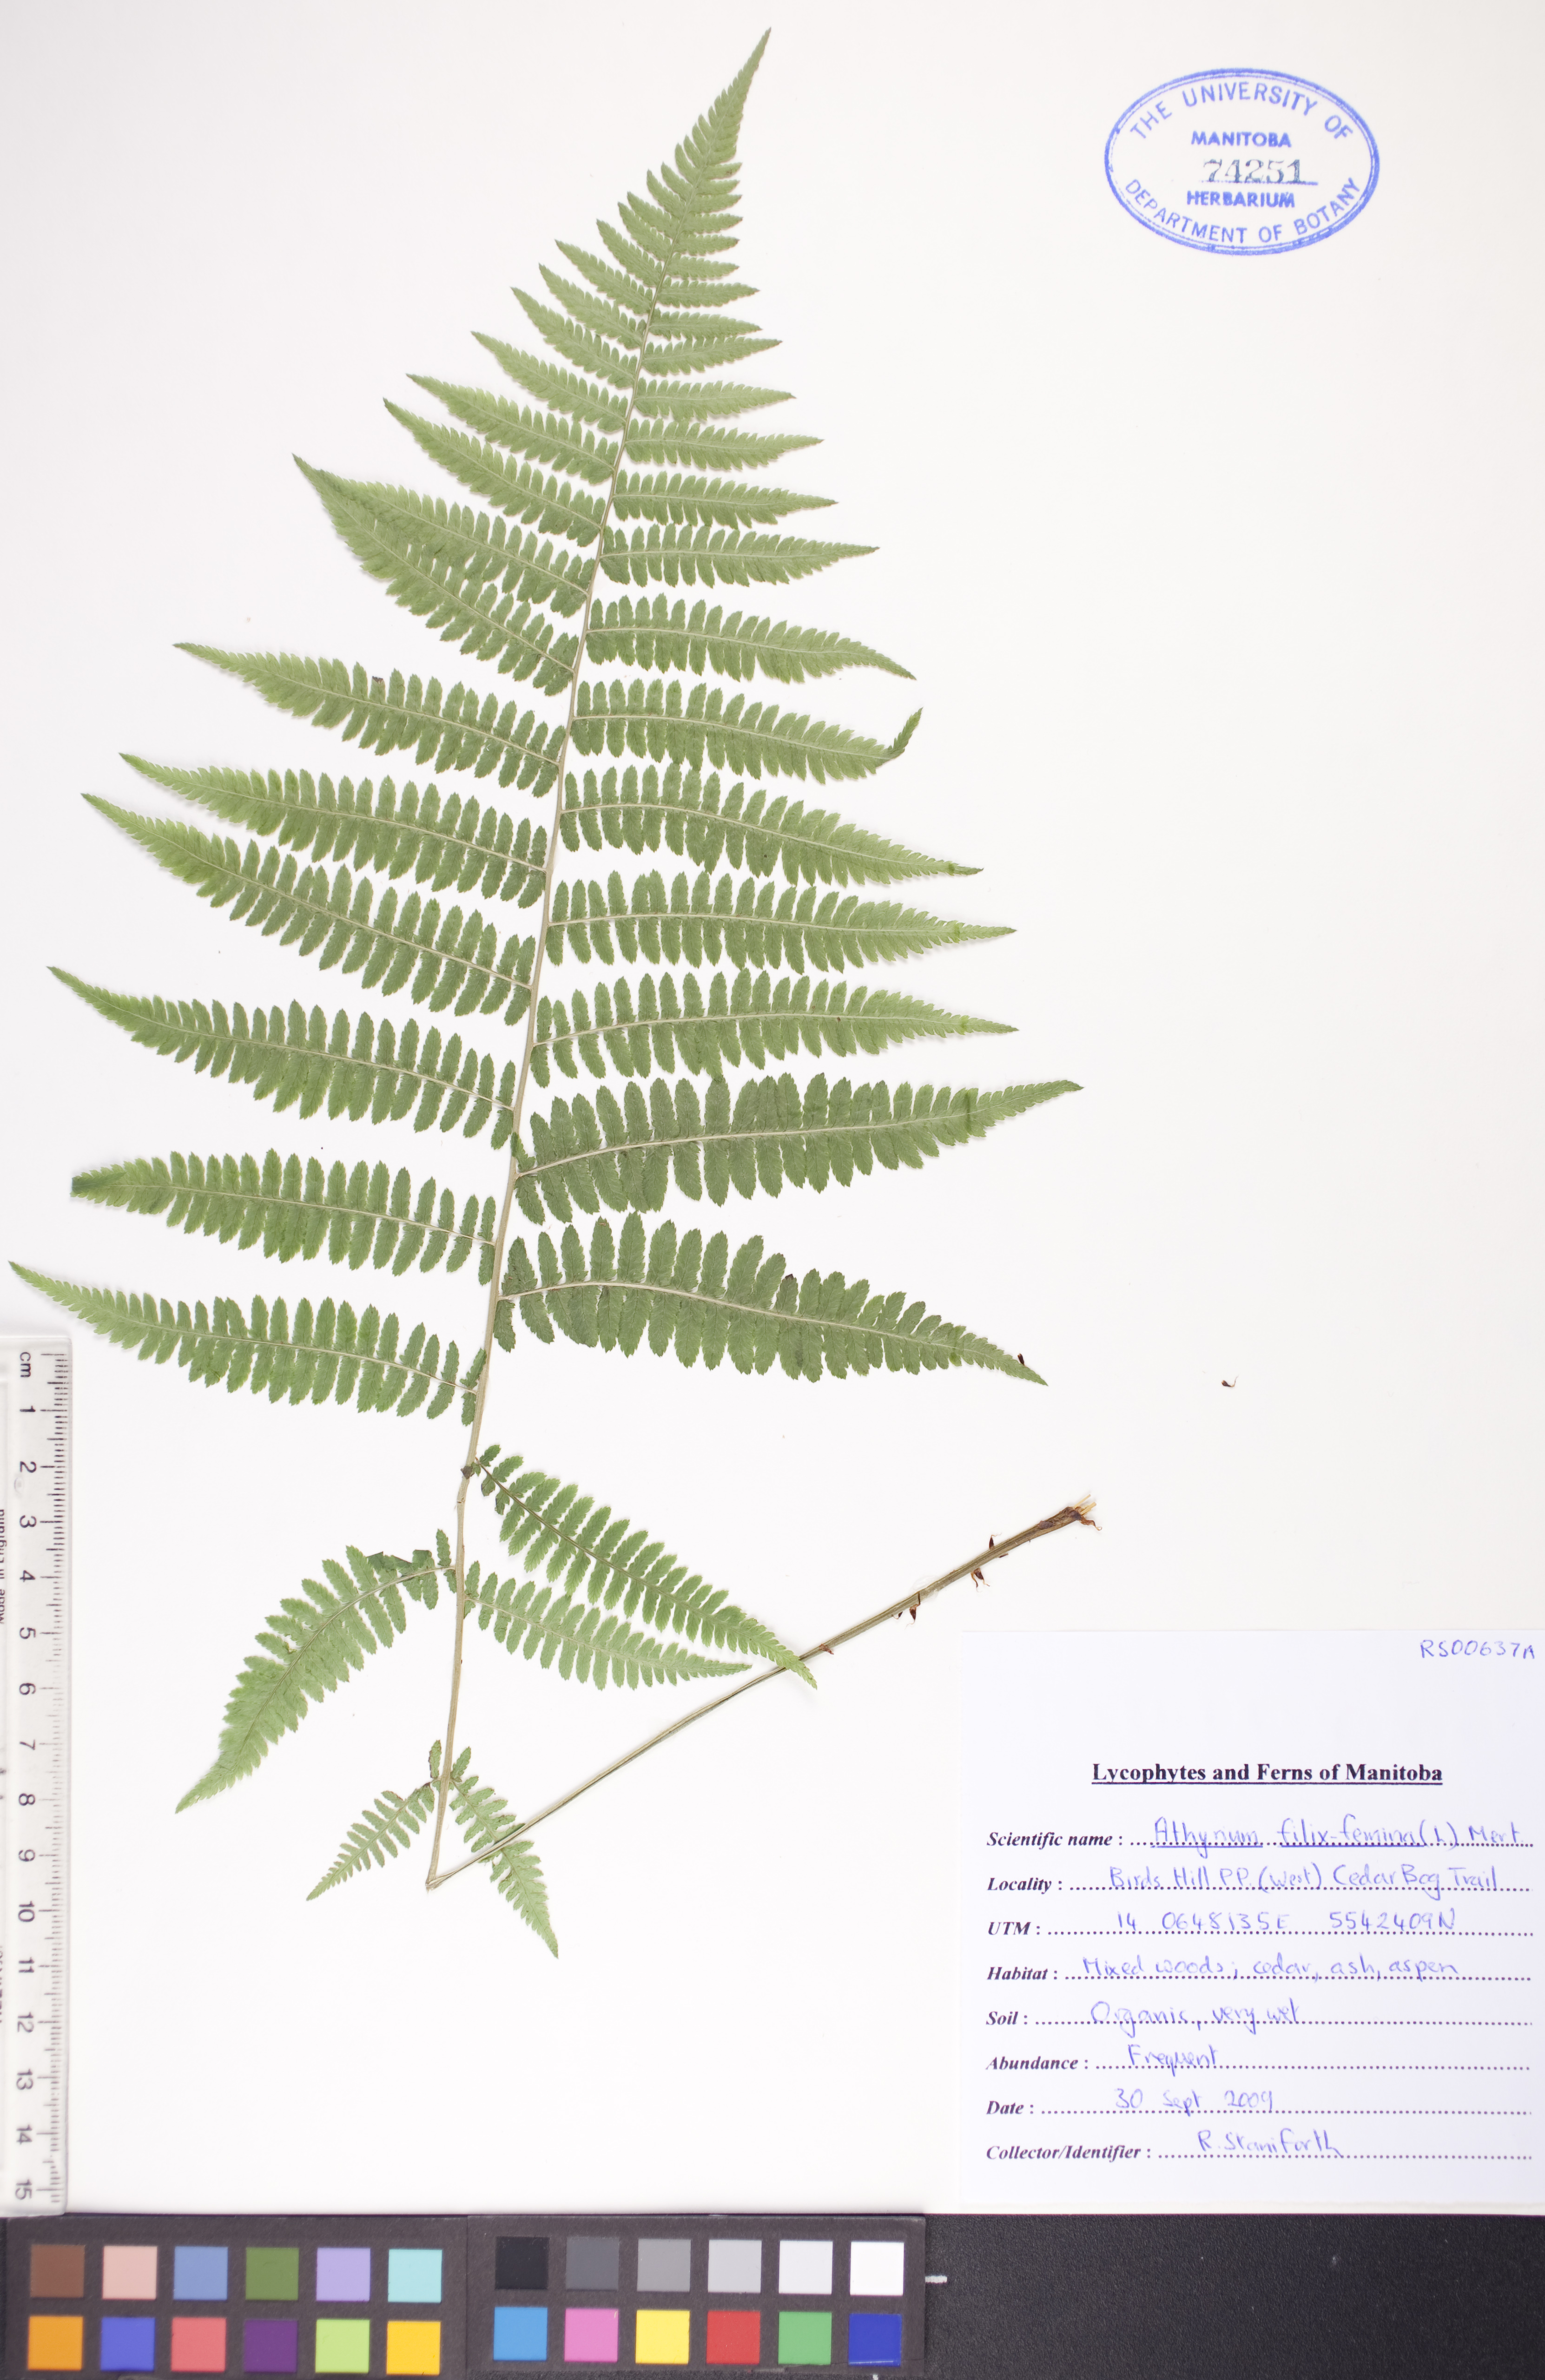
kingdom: Plantae
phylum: Tracheophyta
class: Polypodiopsida
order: Polypodiales
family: Athyriaceae
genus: Athyrium
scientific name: Athyrium filix-femina
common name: Lady fern
